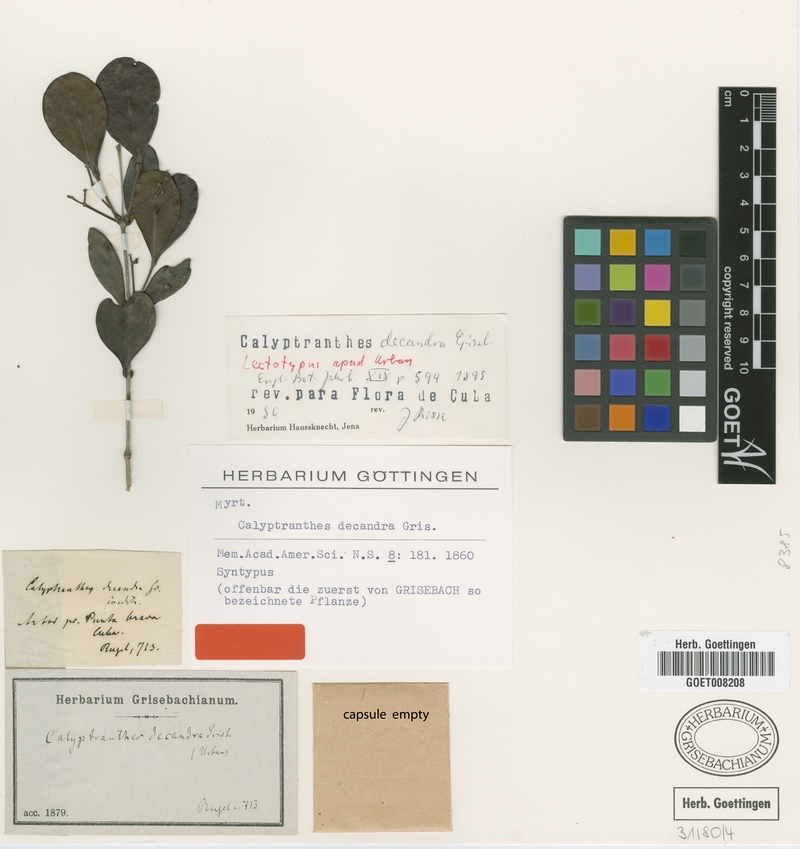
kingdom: Plantae
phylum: Tracheophyta
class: Magnoliopsida
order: Myrtales
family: Myrtaceae
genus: Myrcia
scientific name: Myrcia decandra
